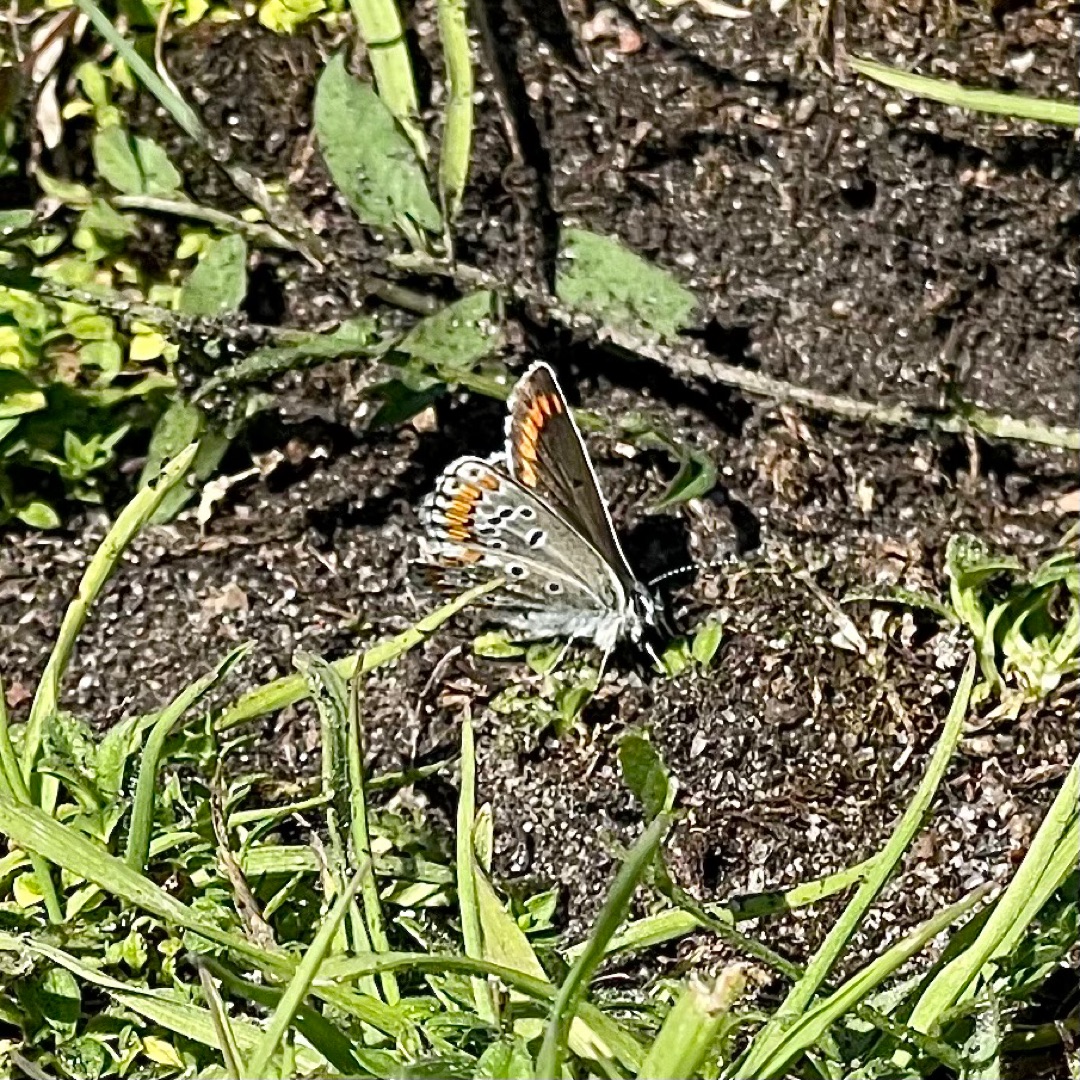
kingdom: Animalia
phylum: Arthropoda
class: Insecta
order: Lepidoptera
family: Lycaenidae
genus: Aricia
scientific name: Aricia agestis
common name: Rødplettet blåfugl
